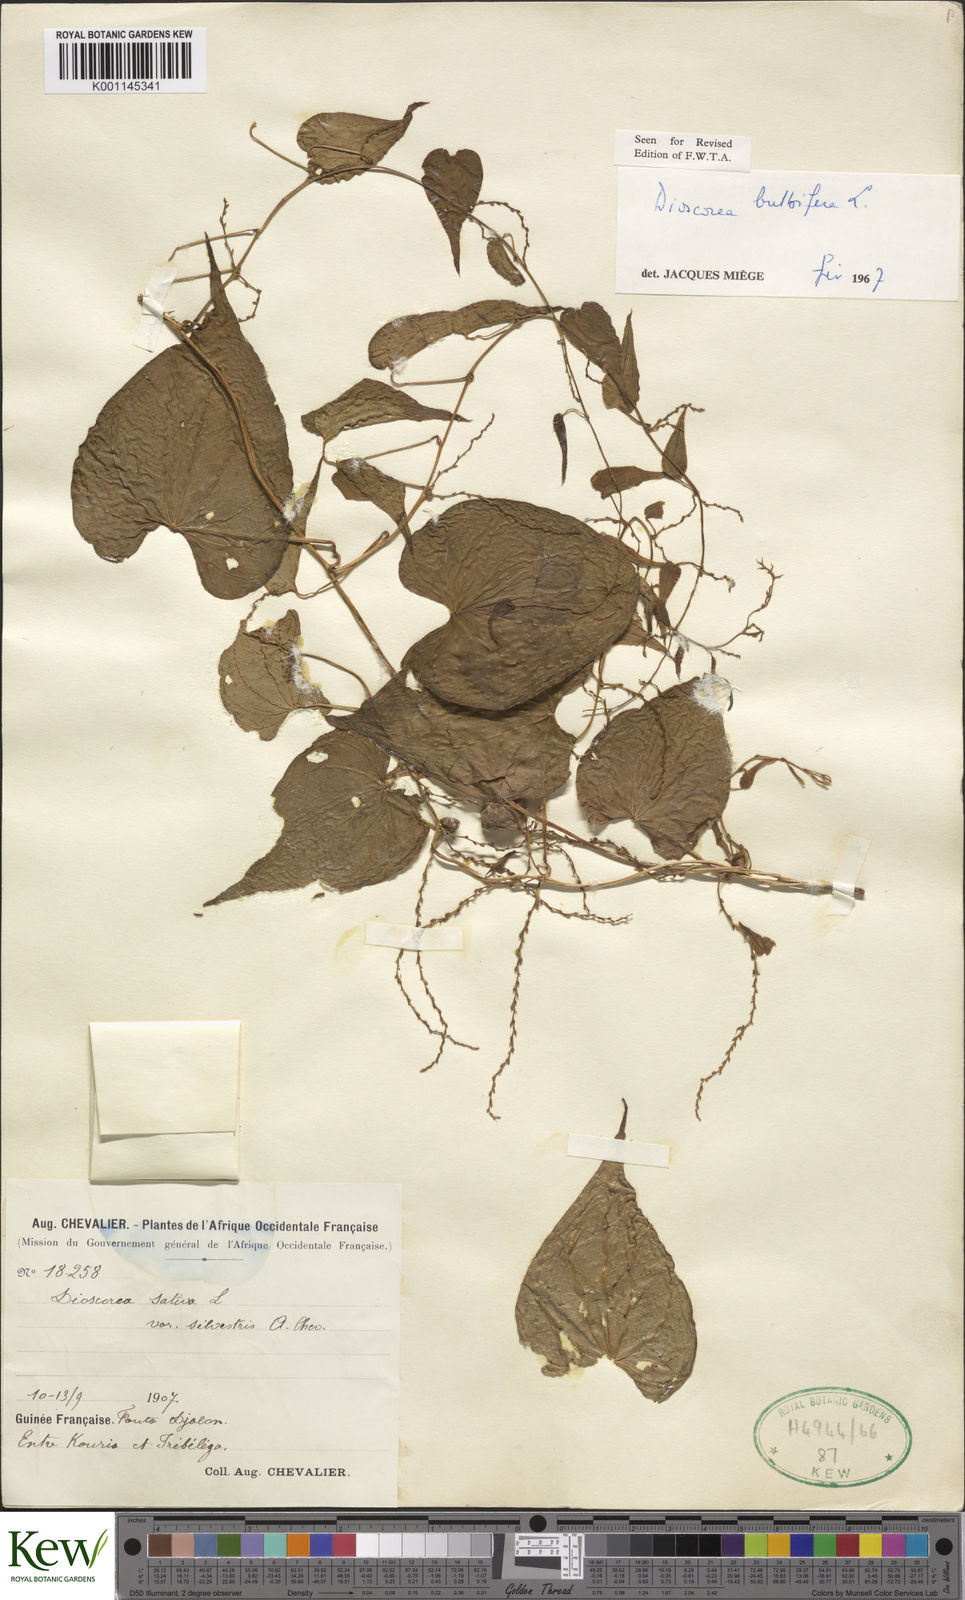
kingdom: Plantae
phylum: Tracheophyta
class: Liliopsida
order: Dioscoreales
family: Dioscoreaceae
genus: Dioscorea
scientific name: Dioscorea bulbifera
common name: Air yam
